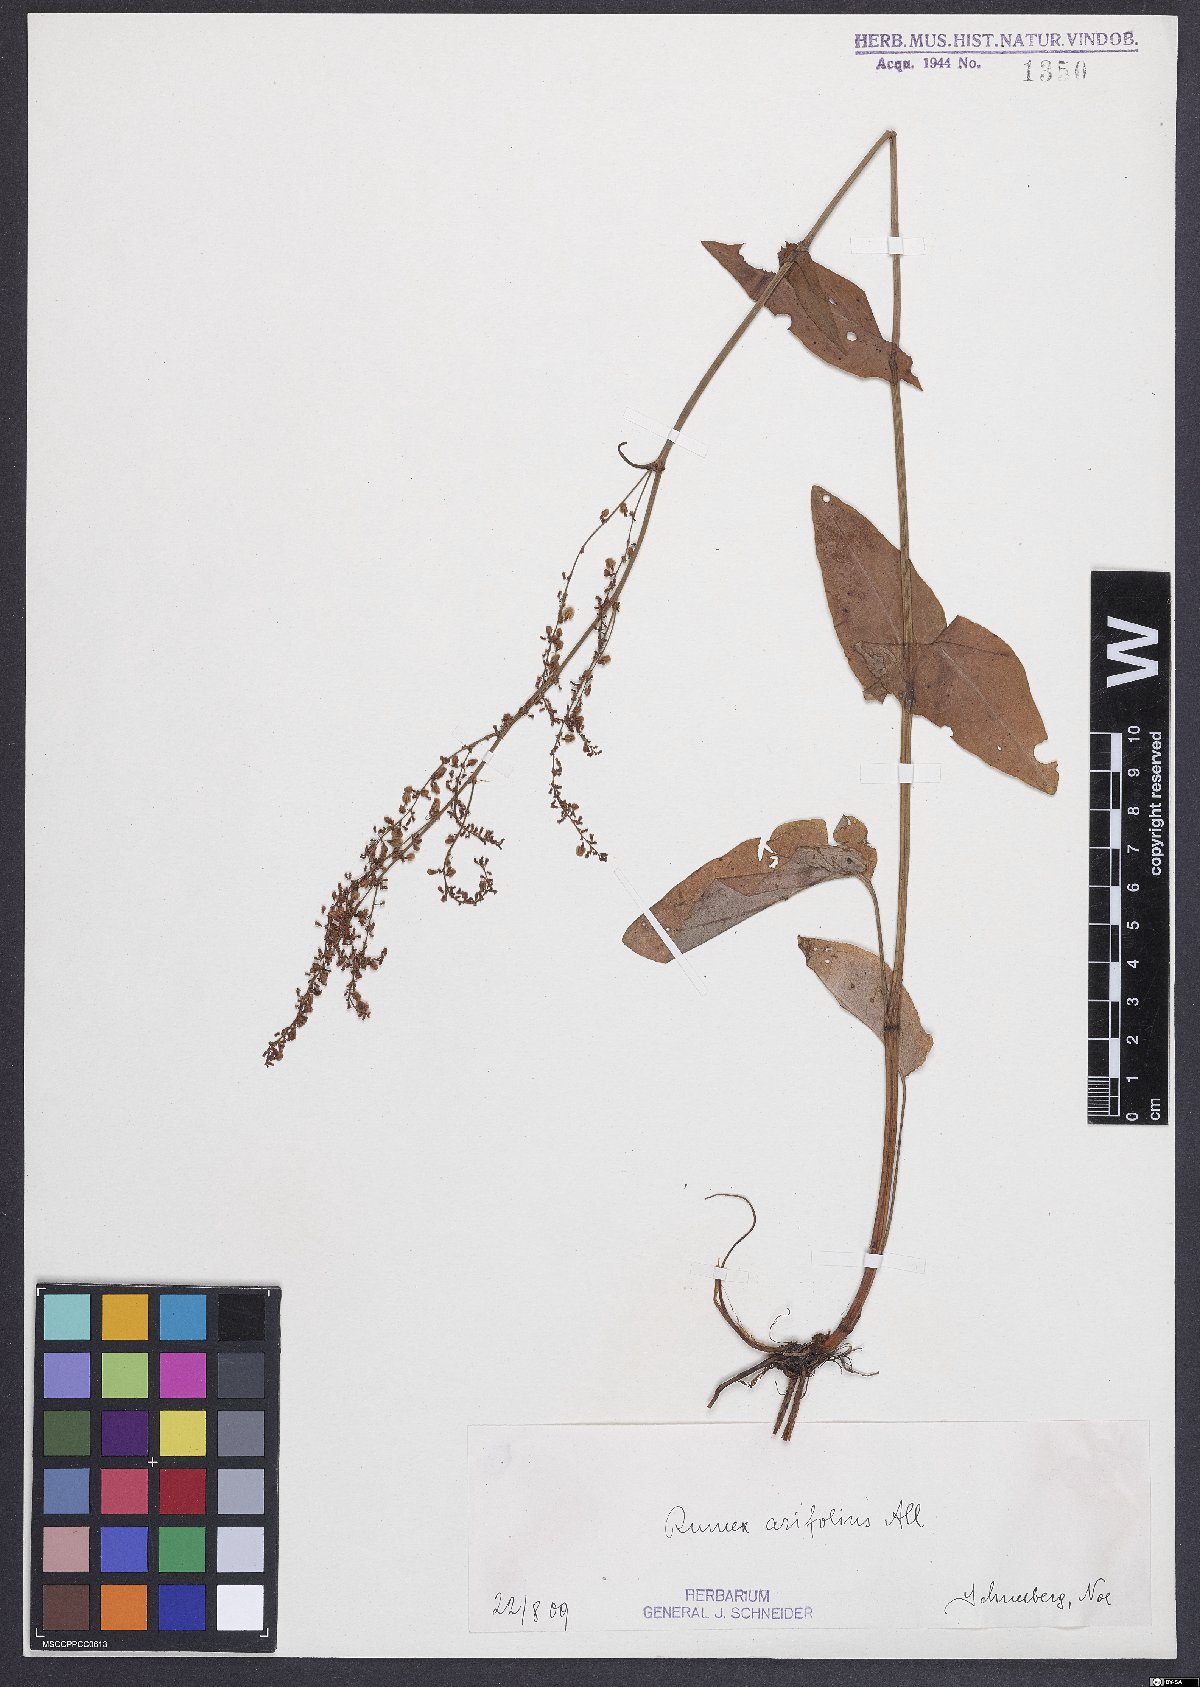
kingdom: Plantae
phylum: Tracheophyta
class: Magnoliopsida
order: Caryophyllales
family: Polygonaceae
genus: Rumex
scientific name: Rumex arifolius
